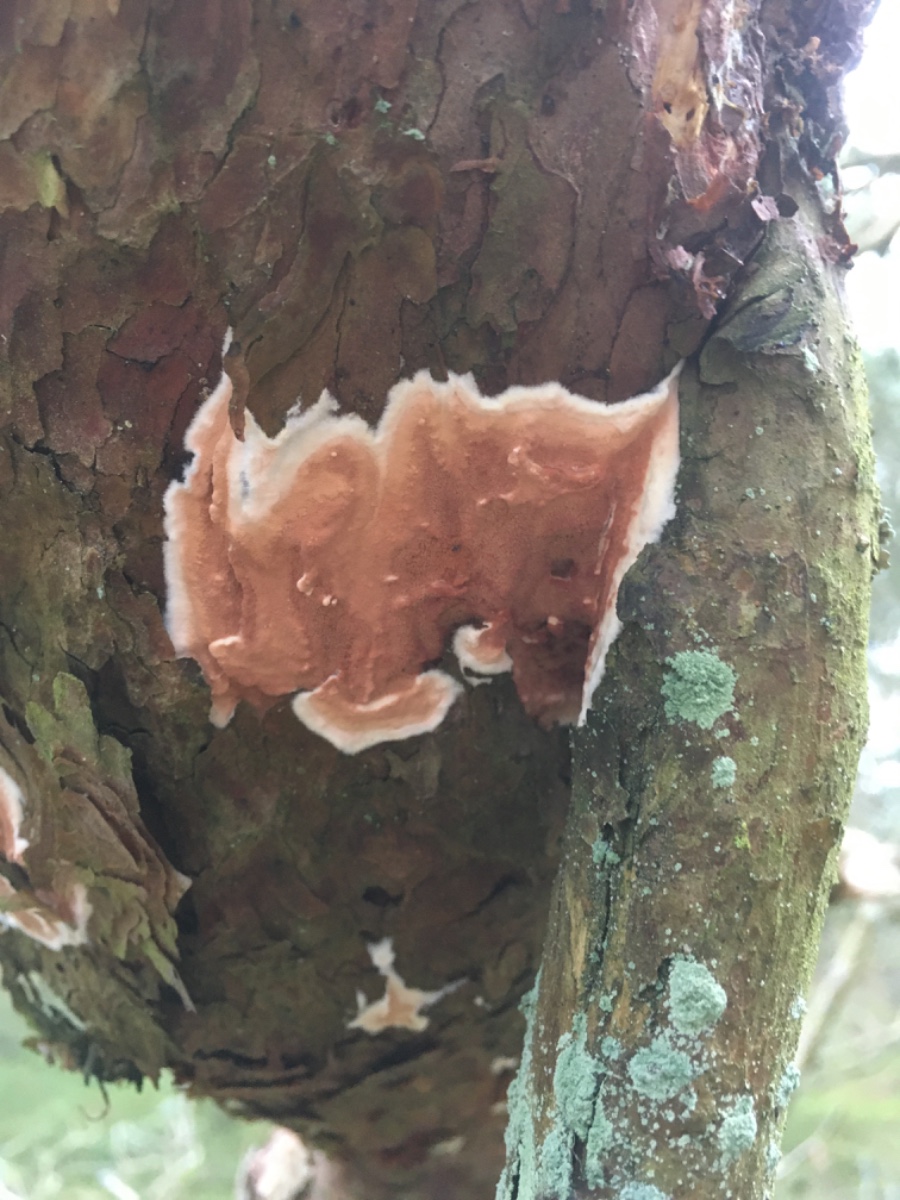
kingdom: Fungi
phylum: Basidiomycota
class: Agaricomycetes
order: Polyporales
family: Irpicaceae
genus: Meruliopsis
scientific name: Meruliopsis taxicola
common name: purpurbrun foldporesvamp
